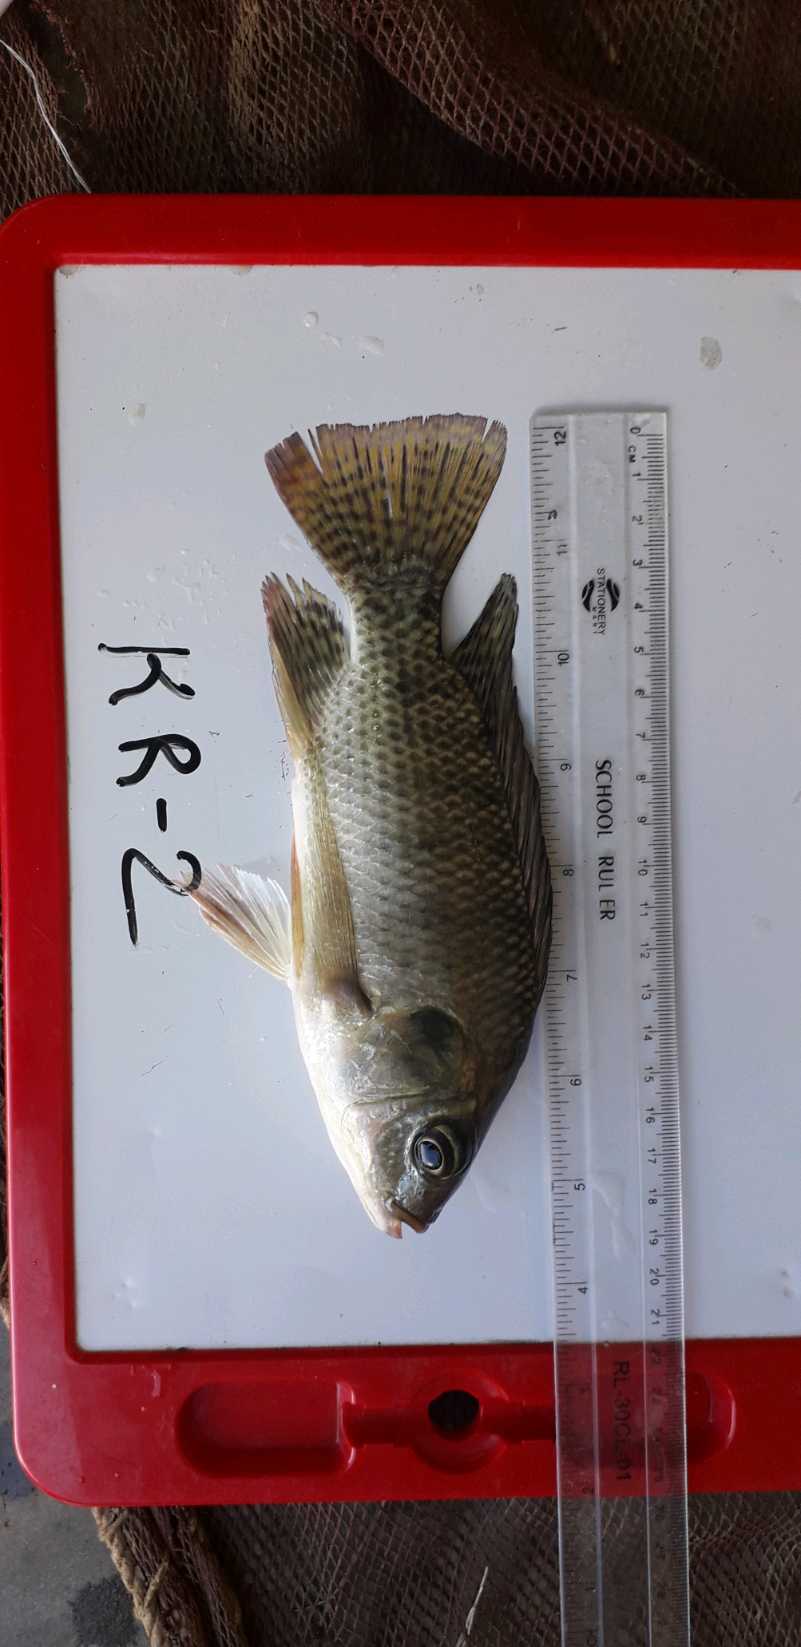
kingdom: Animalia
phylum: Chordata
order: Perciformes
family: Cichlidae
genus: Oreochromis
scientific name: Oreochromis niloticus
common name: Nile tilapia
